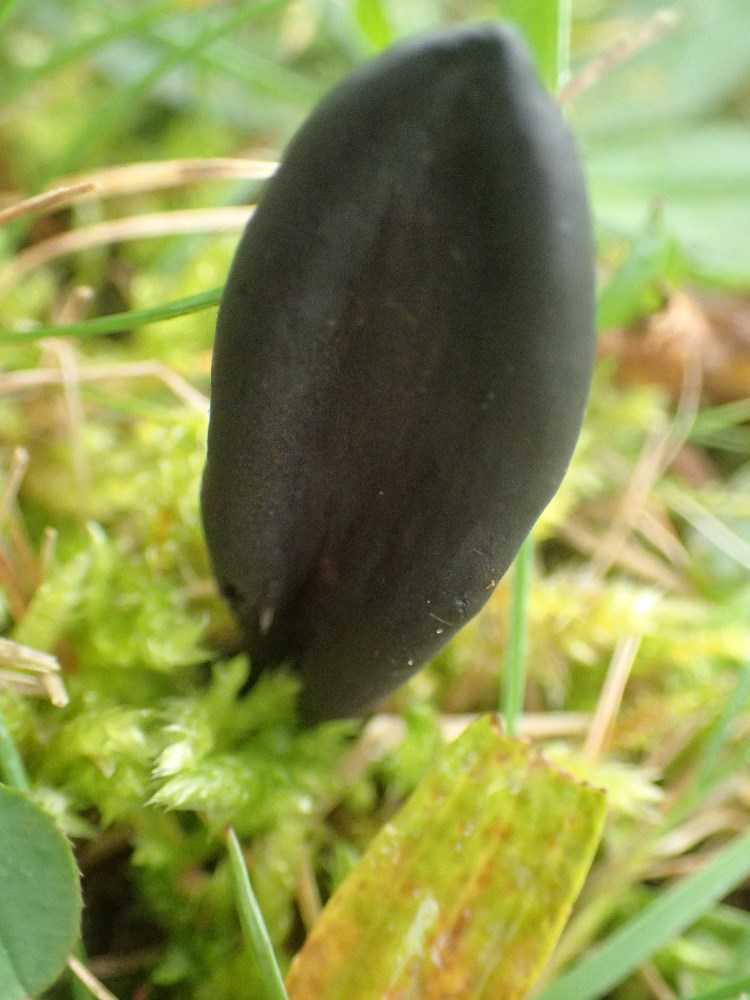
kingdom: Fungi
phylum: Ascomycota
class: Geoglossomycetes
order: Geoglossales
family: Geoglossaceae
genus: Geoglossum
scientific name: Geoglossum cookeianum
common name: bred jordtunge
